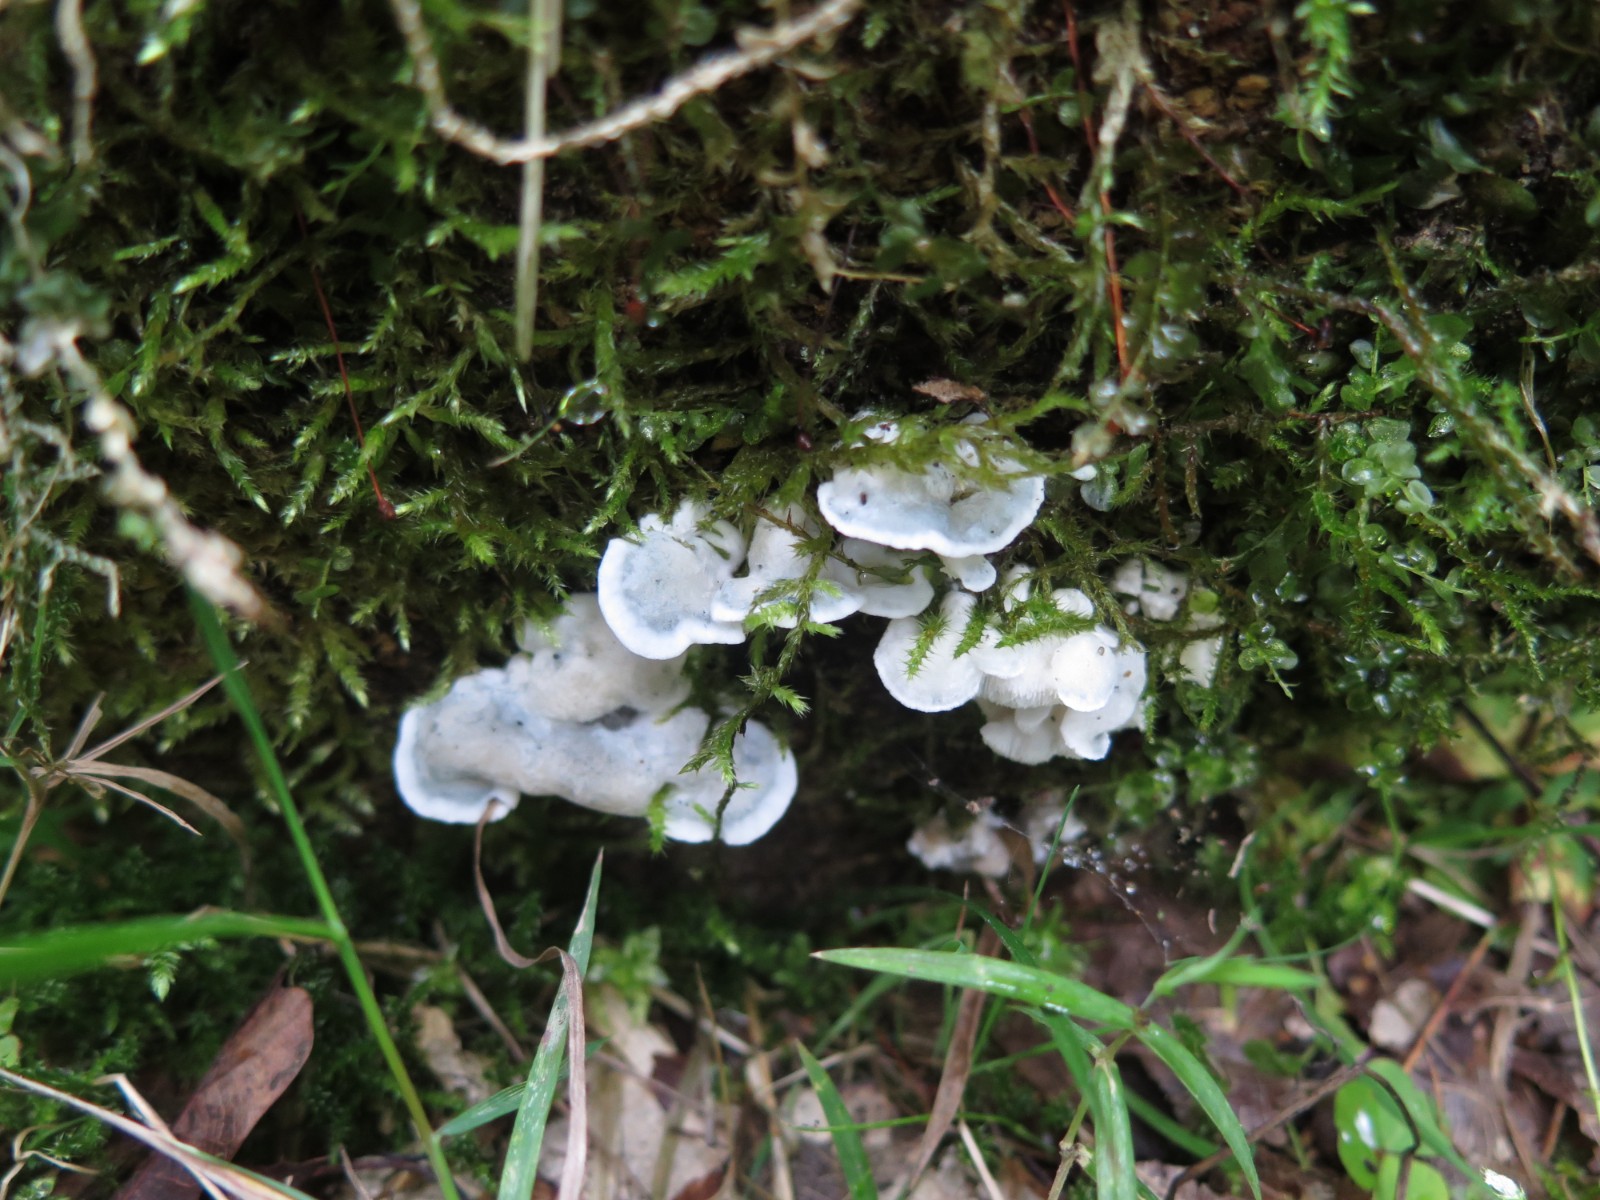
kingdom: Fungi
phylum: Basidiomycota
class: Agaricomycetes
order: Polyporales
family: Polyporaceae
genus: Cyanosporus
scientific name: Cyanosporus caesius
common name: blålig kødporesvamp
